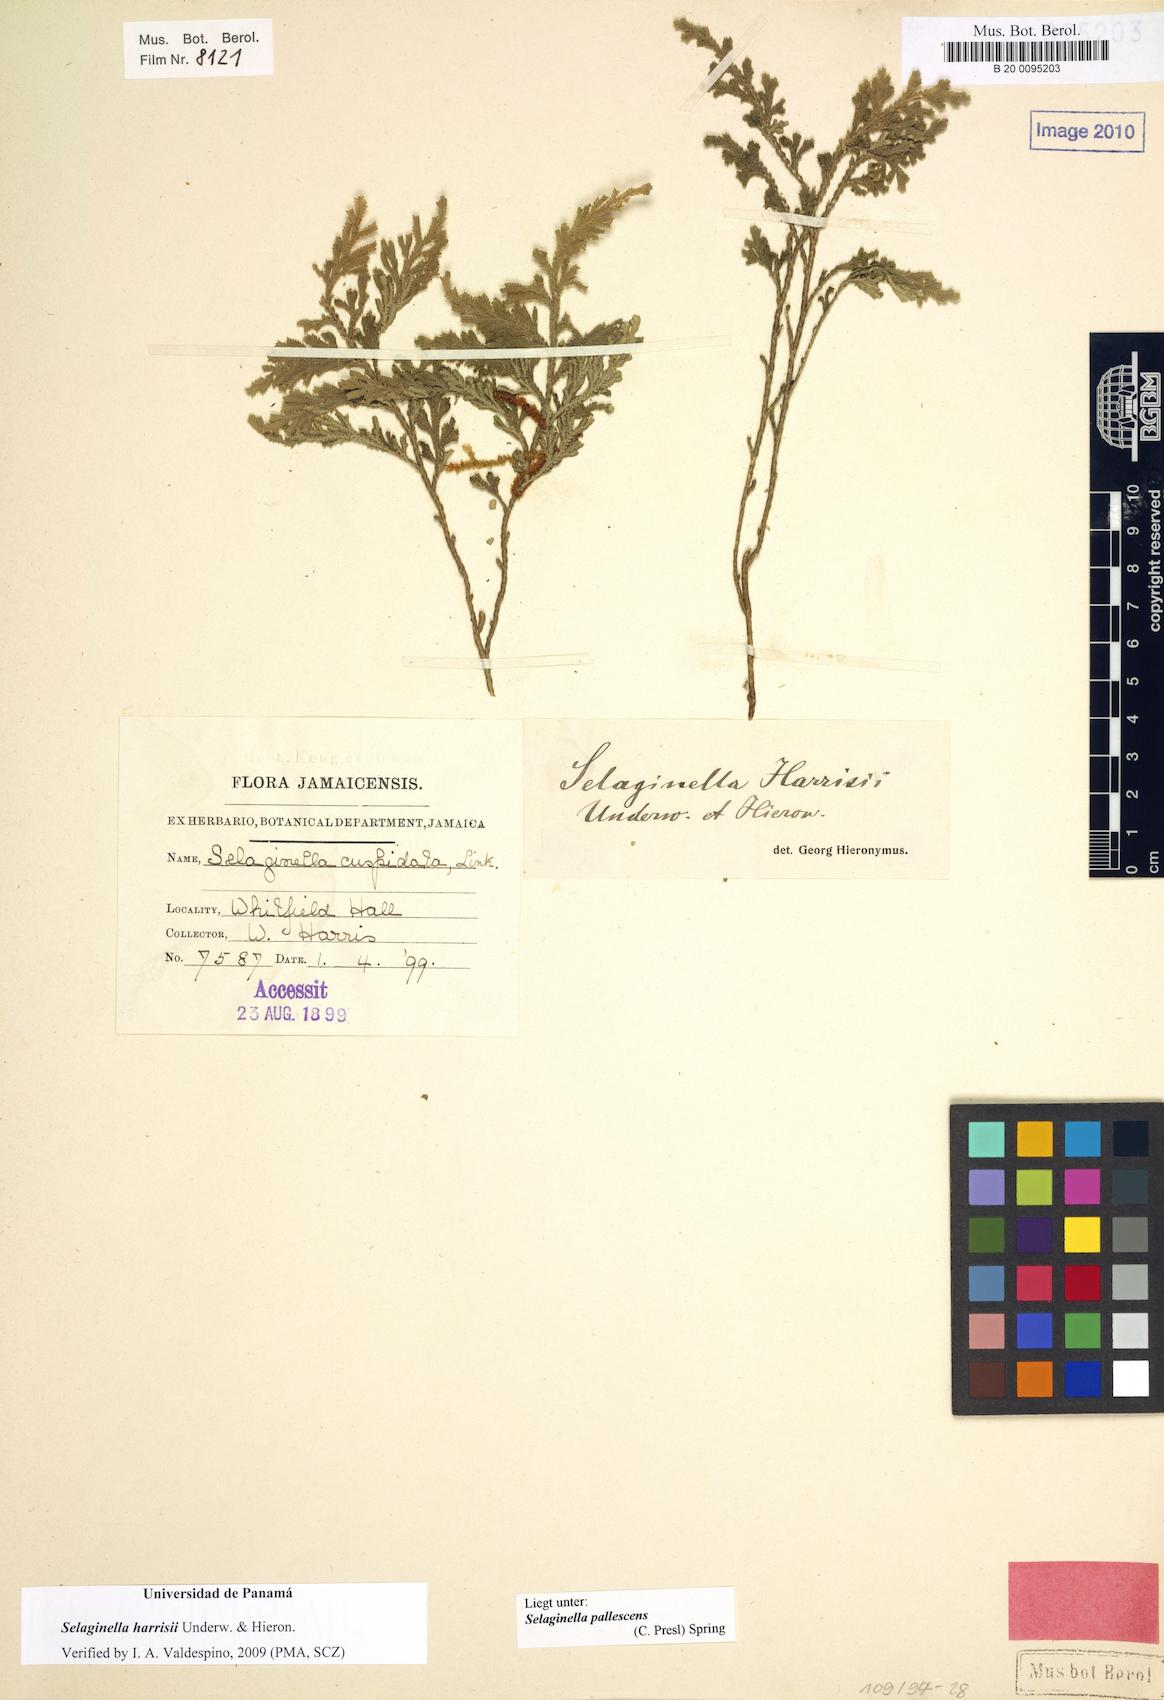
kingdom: Plantae
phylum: Tracheophyta
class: Lycopodiopsida
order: Selaginellales
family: Selaginellaceae
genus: Selaginella
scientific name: Selaginella harrisii
